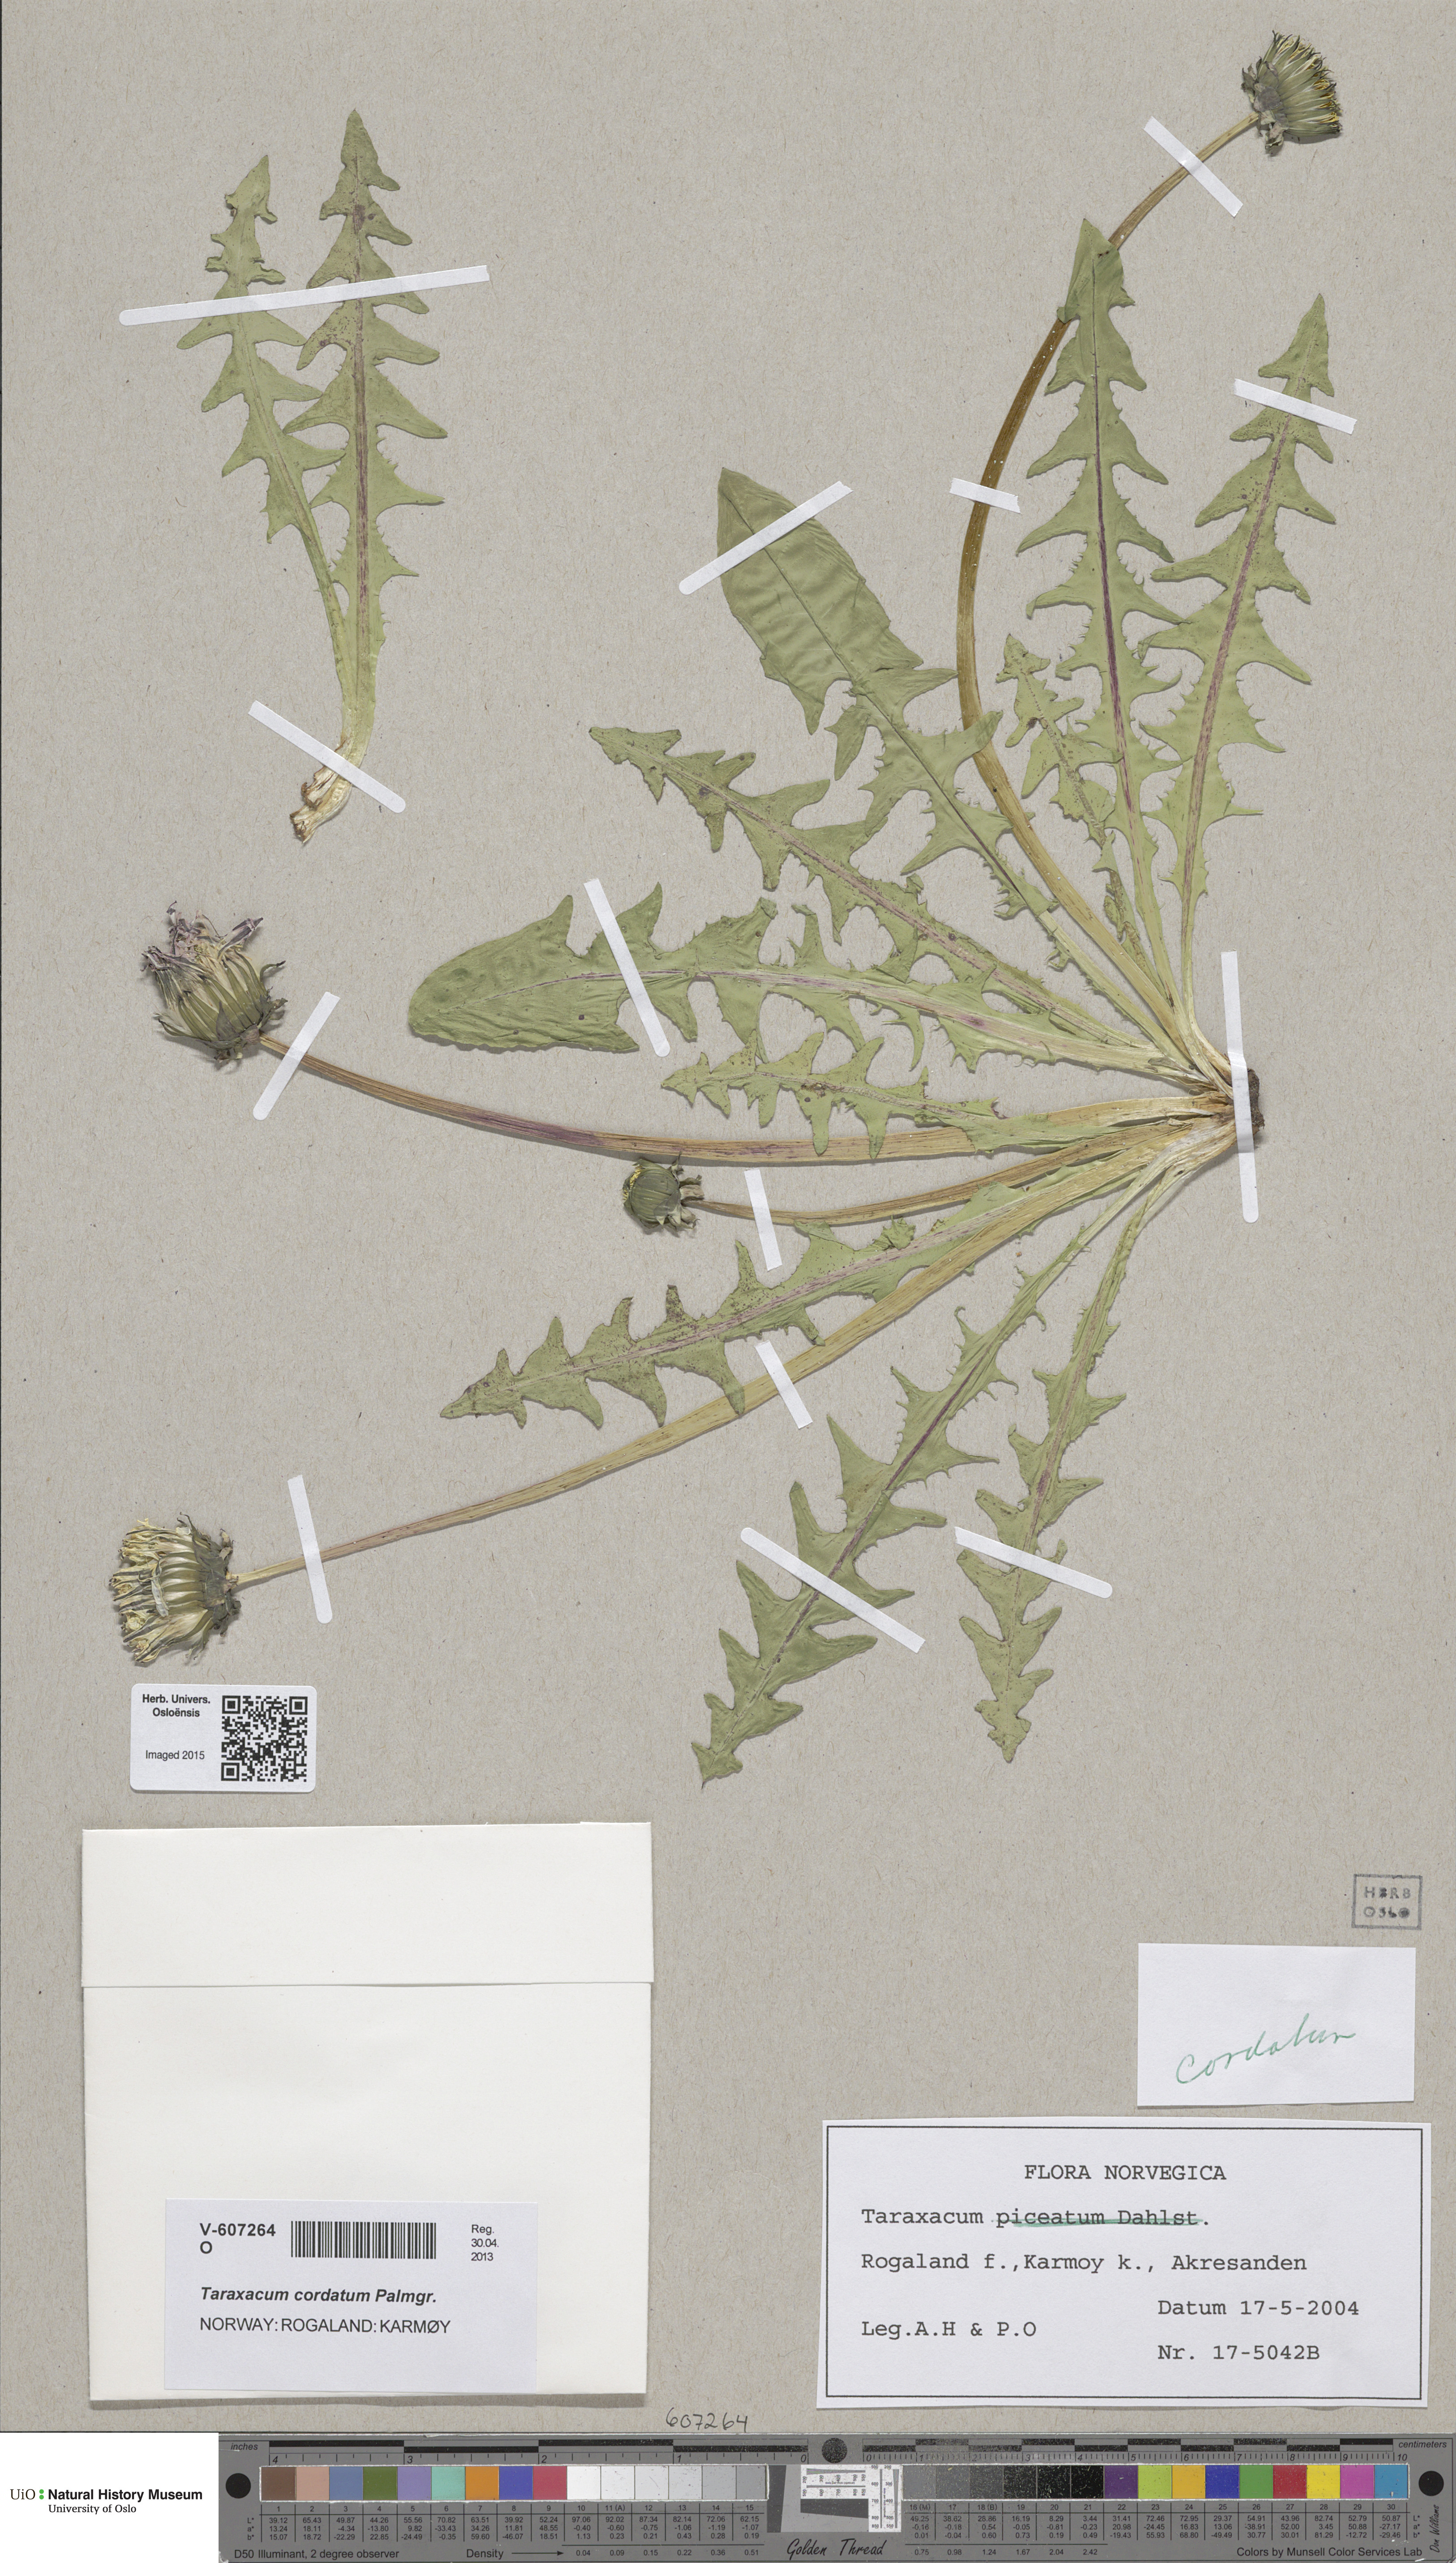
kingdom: Plantae
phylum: Tracheophyta
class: Magnoliopsida
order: Asterales
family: Asteraceae
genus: Taraxacum
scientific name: Taraxacum cordatum
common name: Entire-lobed dandelion
